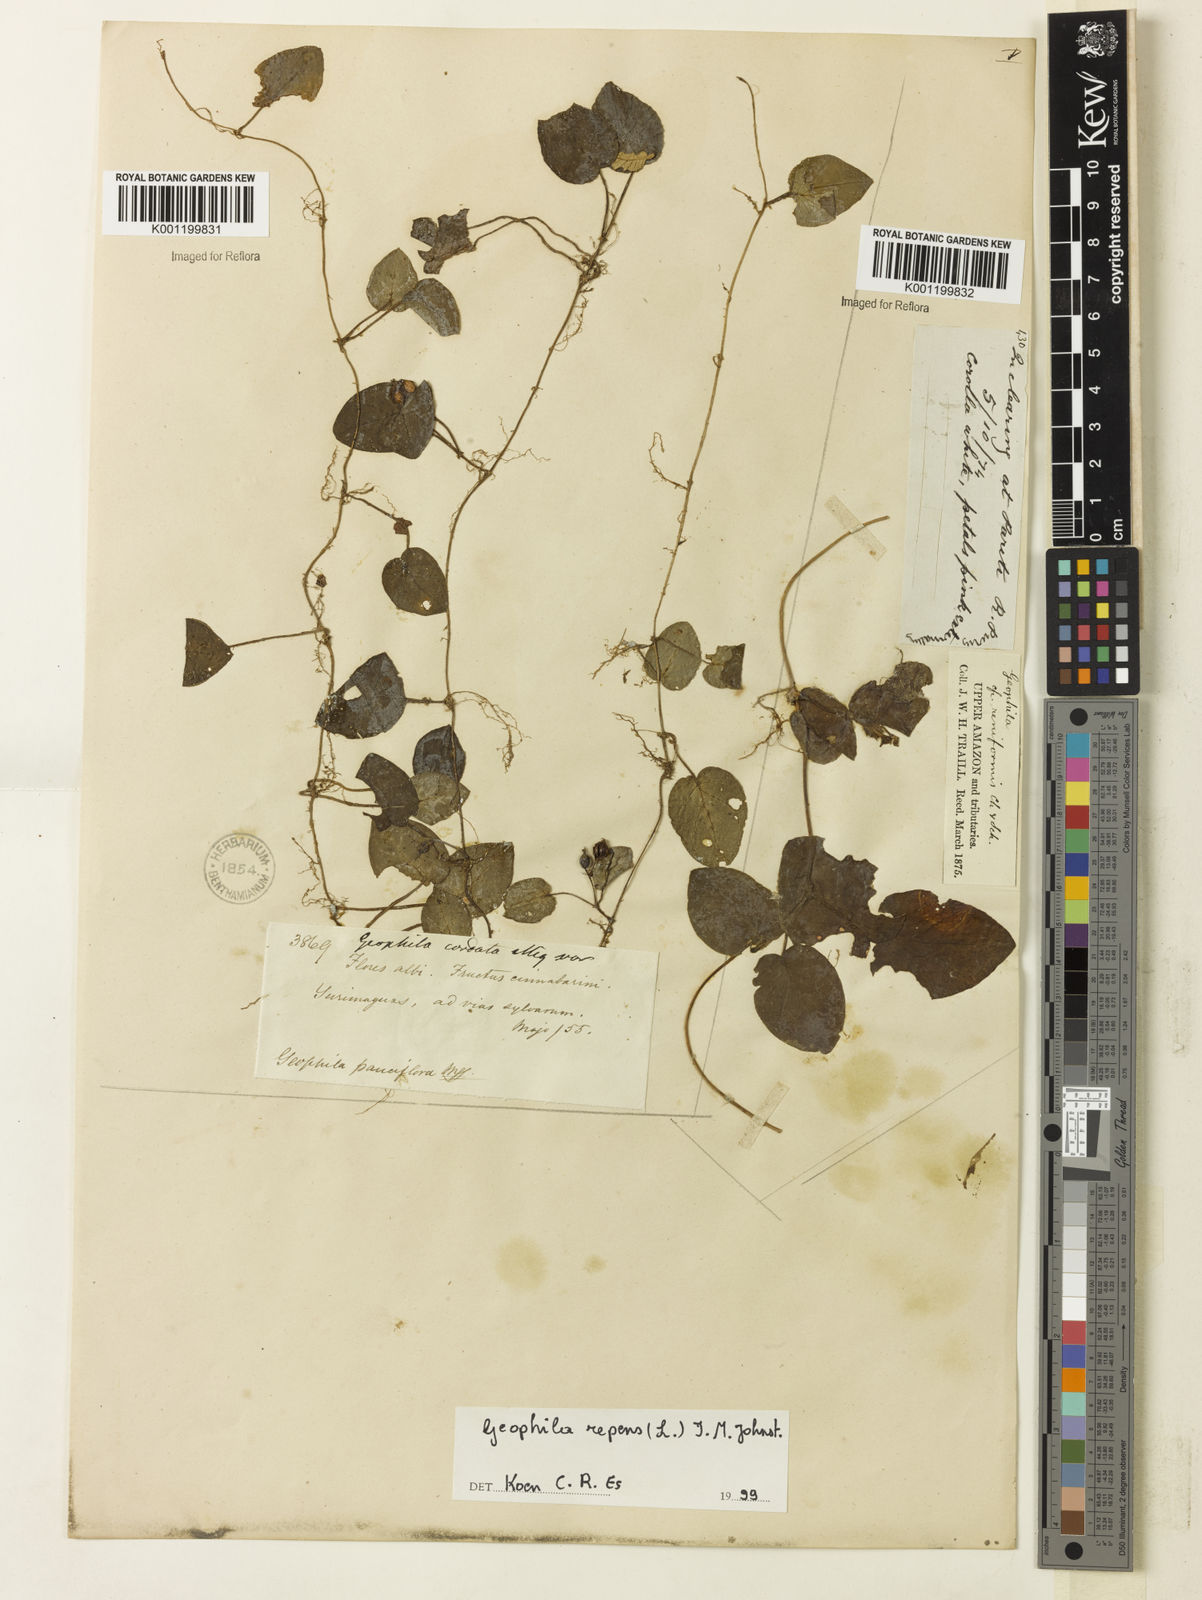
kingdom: Plantae
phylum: Tracheophyta
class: Magnoliopsida
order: Gentianales
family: Rubiaceae
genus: Geophila
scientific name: Geophila repens
